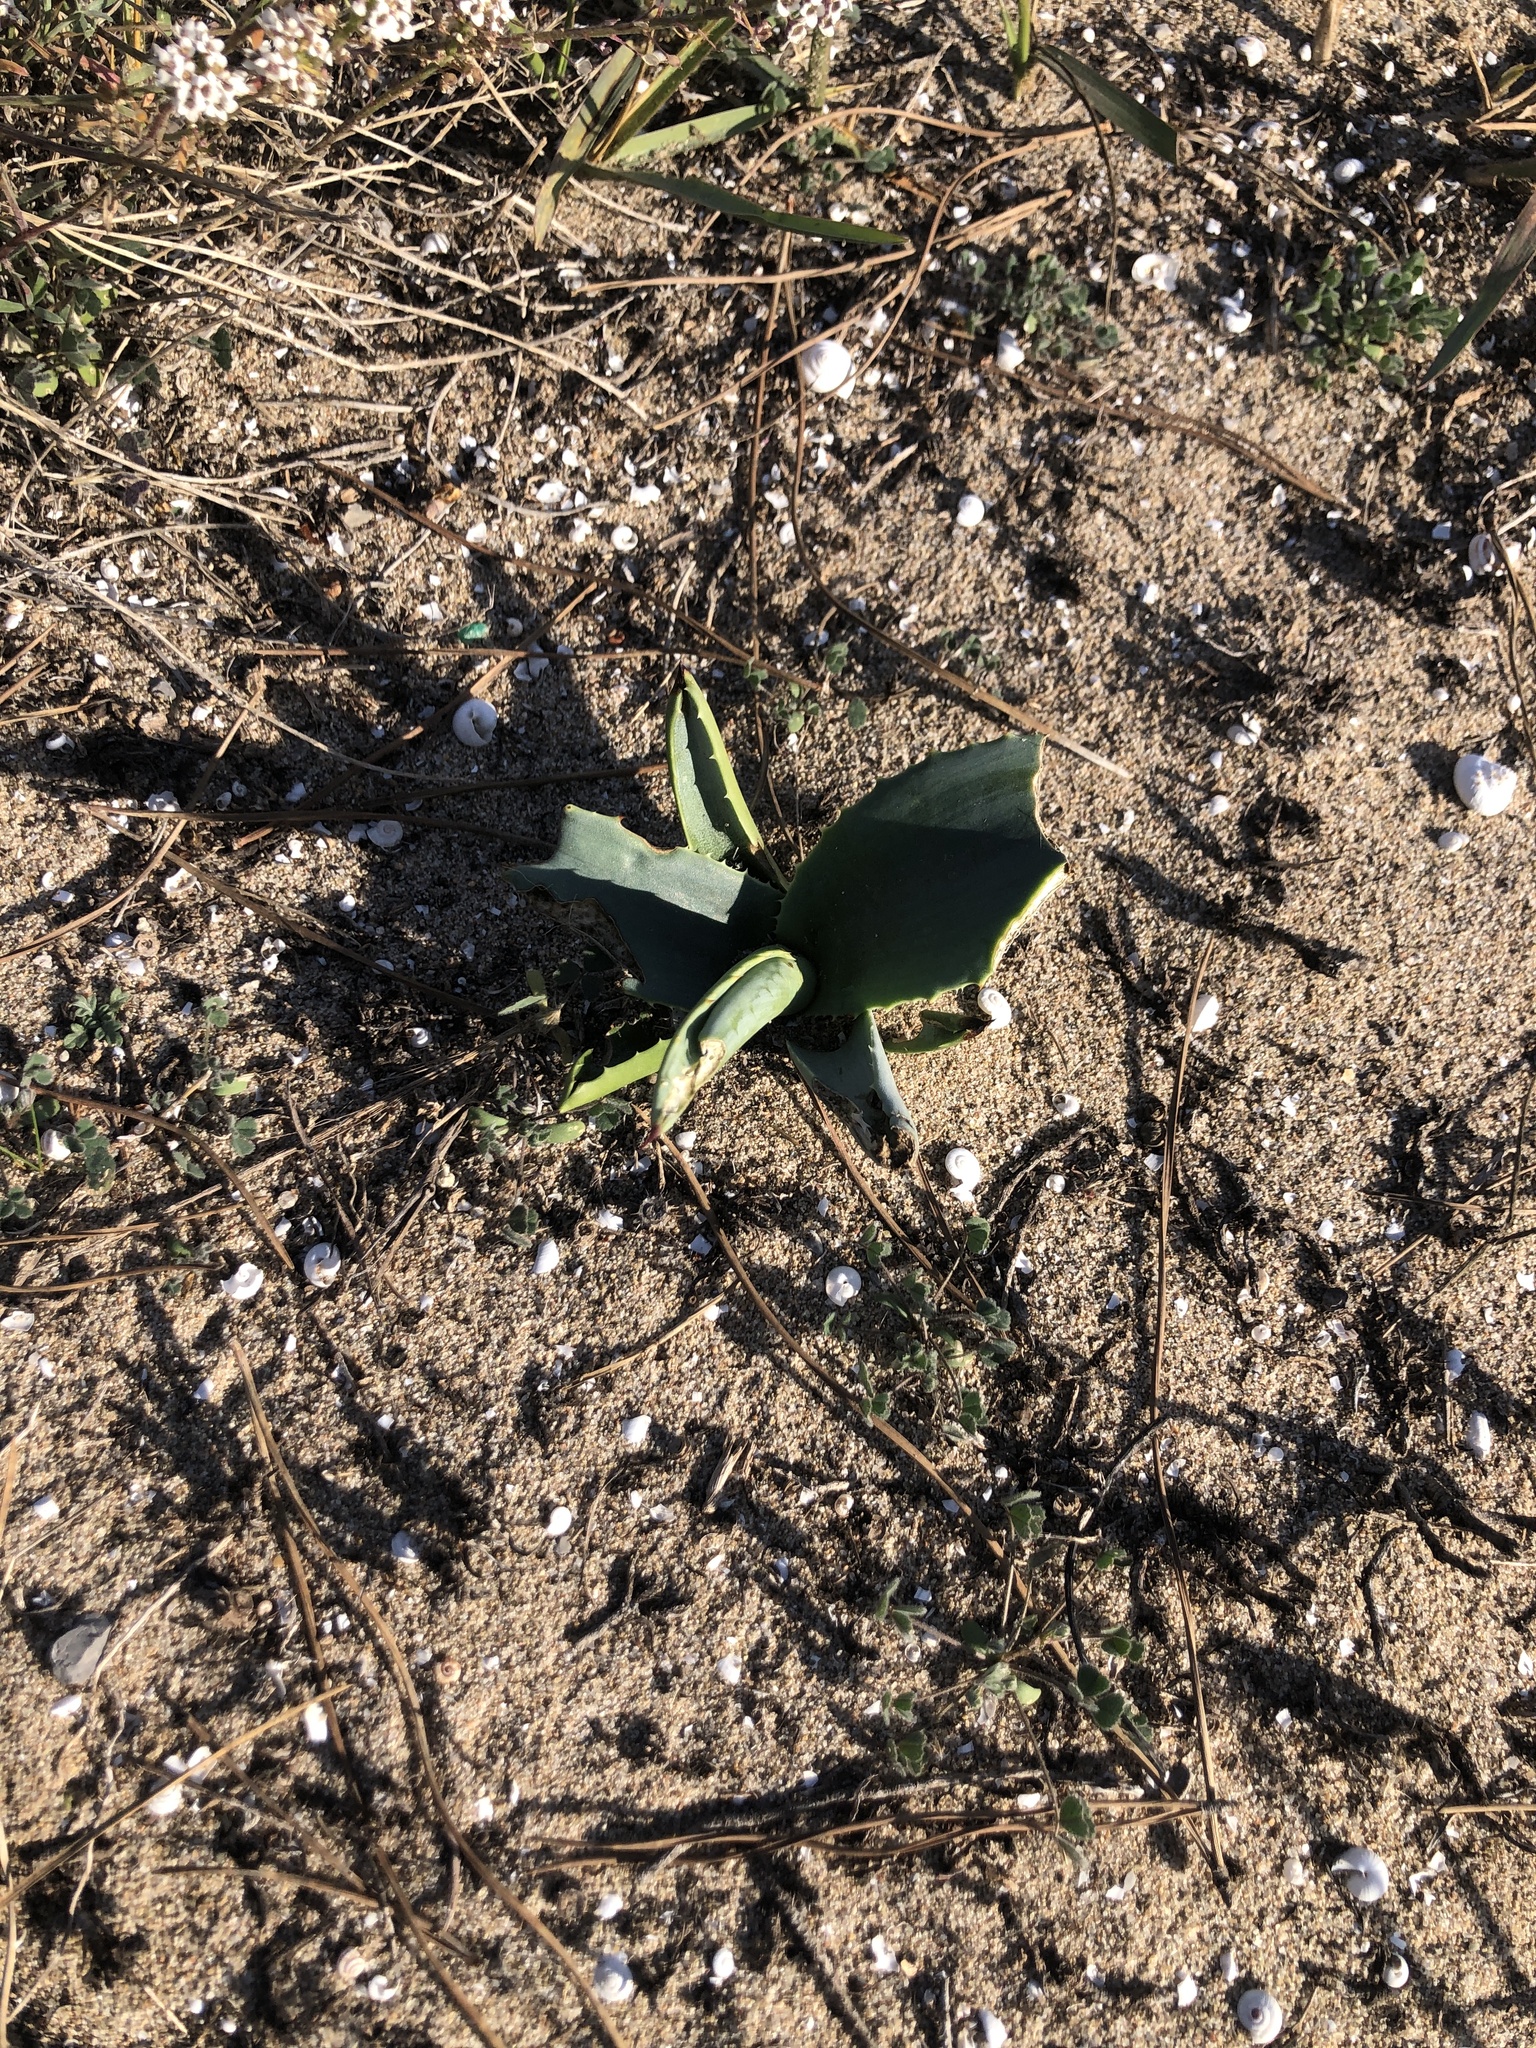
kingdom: Plantae
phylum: Tracheophyta
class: Liliopsida
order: Asparagales
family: Asparagaceae
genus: Agave
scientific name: Agave americana
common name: Centuryplant
